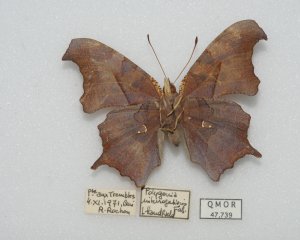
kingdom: Animalia
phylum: Arthropoda
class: Insecta
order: Lepidoptera
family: Nymphalidae
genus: Polygonia
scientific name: Polygonia interrogationis
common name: Question Mark
